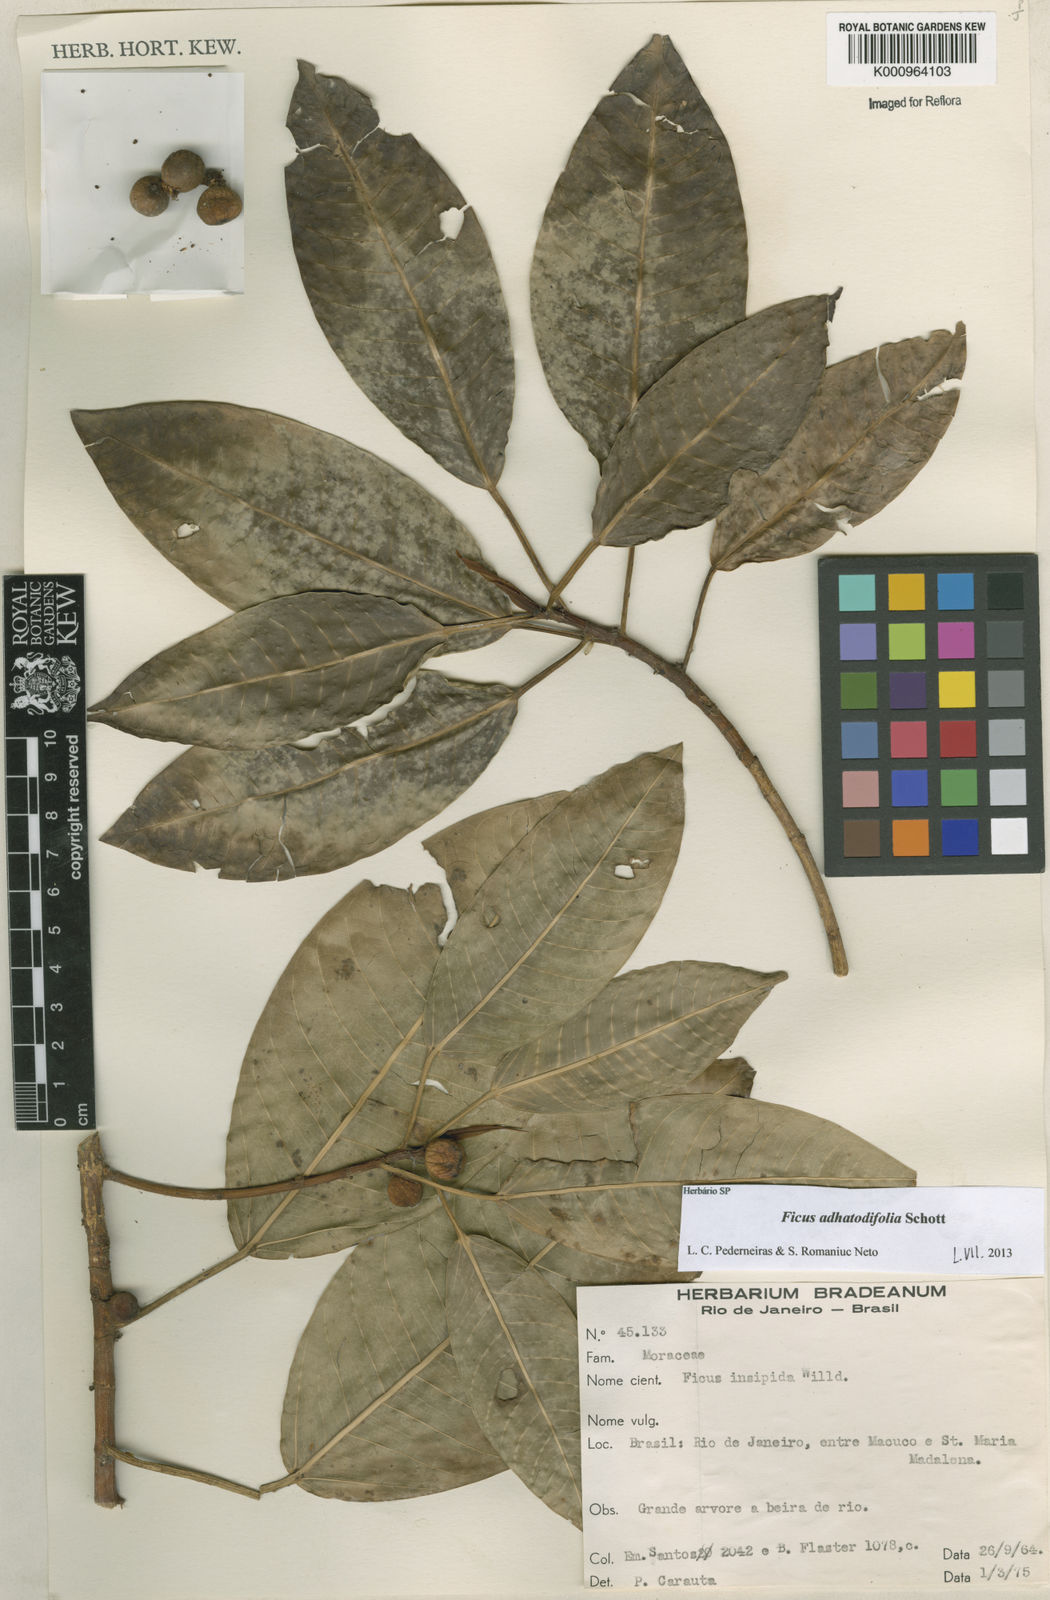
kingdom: Plantae
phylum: Tracheophyta
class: Magnoliopsida
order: Rosales
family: Moraceae
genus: Ficus
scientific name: Ficus
